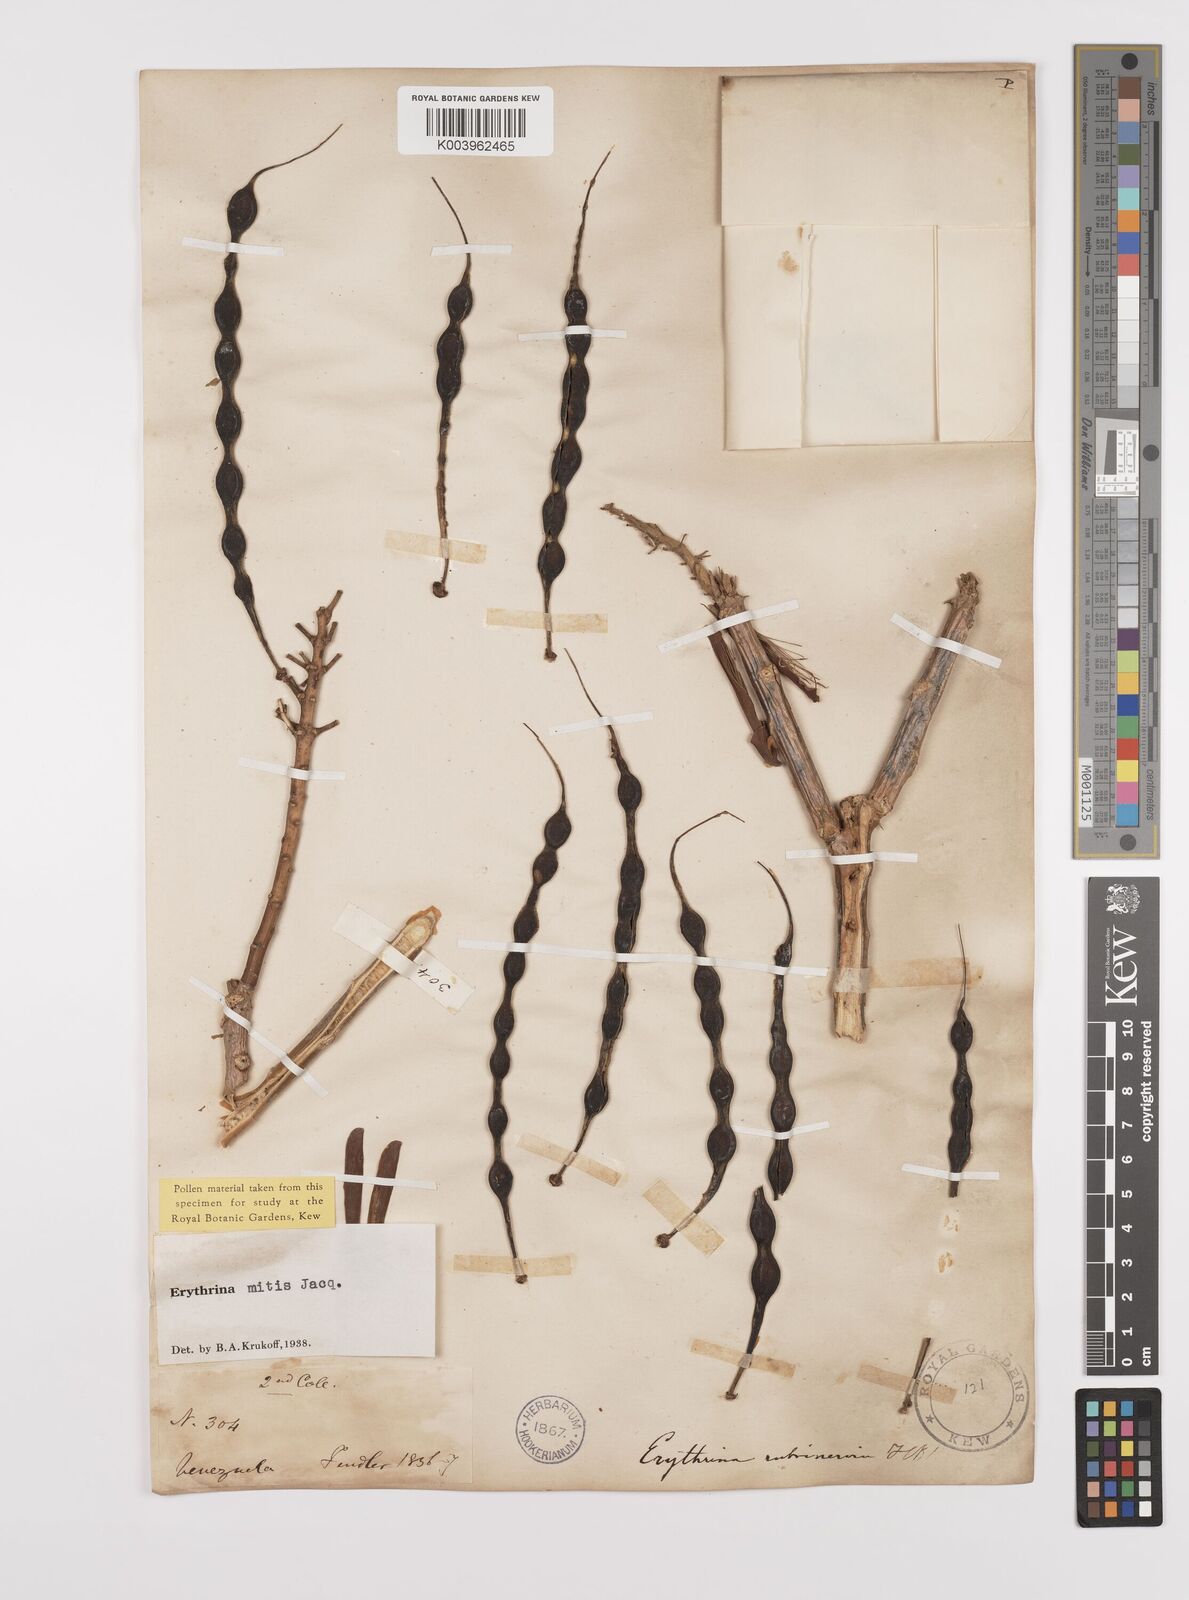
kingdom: Plantae
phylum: Tracheophyta
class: Magnoliopsida
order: Fabales
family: Fabaceae
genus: Erythrina
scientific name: Erythrina mitis
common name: Mortel
